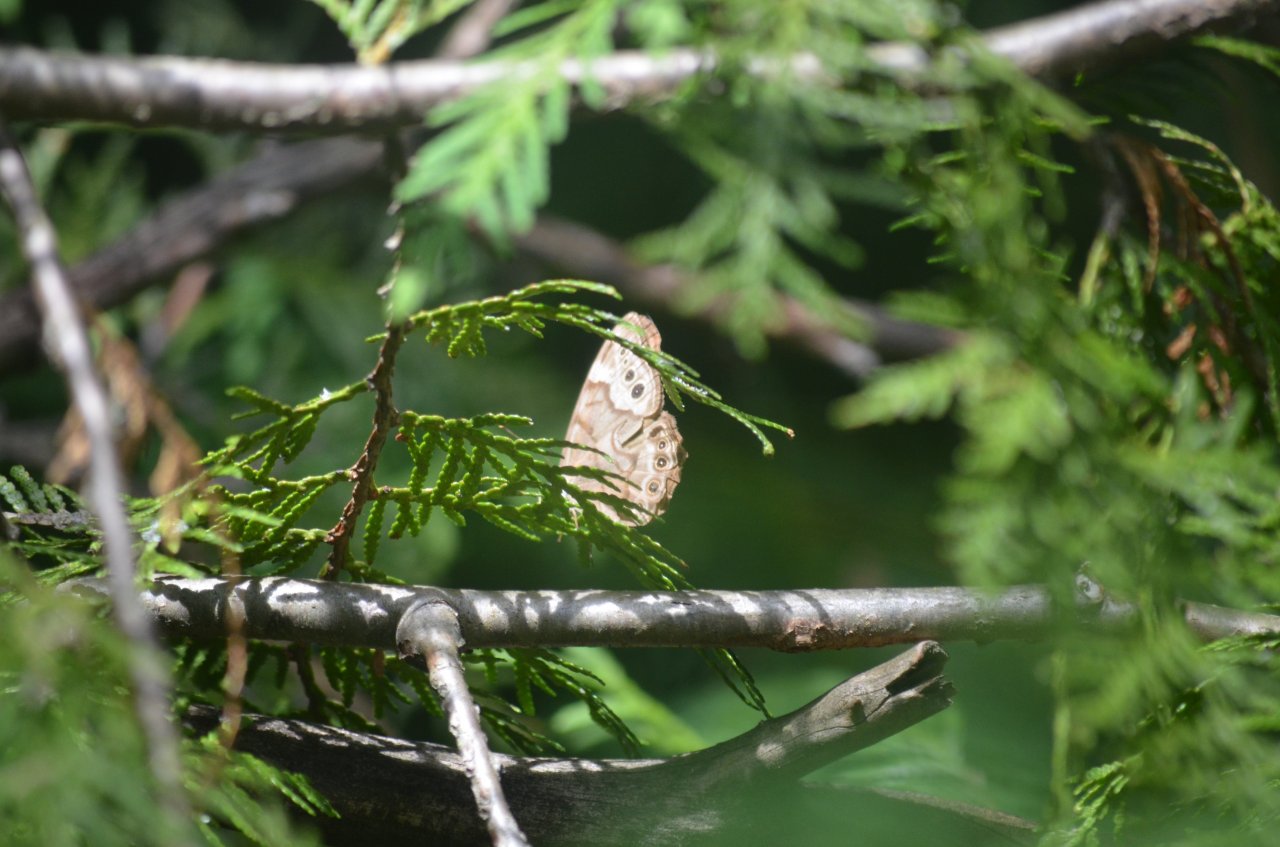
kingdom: Animalia
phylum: Arthropoda
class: Insecta
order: Lepidoptera
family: Nymphalidae
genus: Lethe
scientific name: Lethe anthedon
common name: Northern Pearly-Eye
